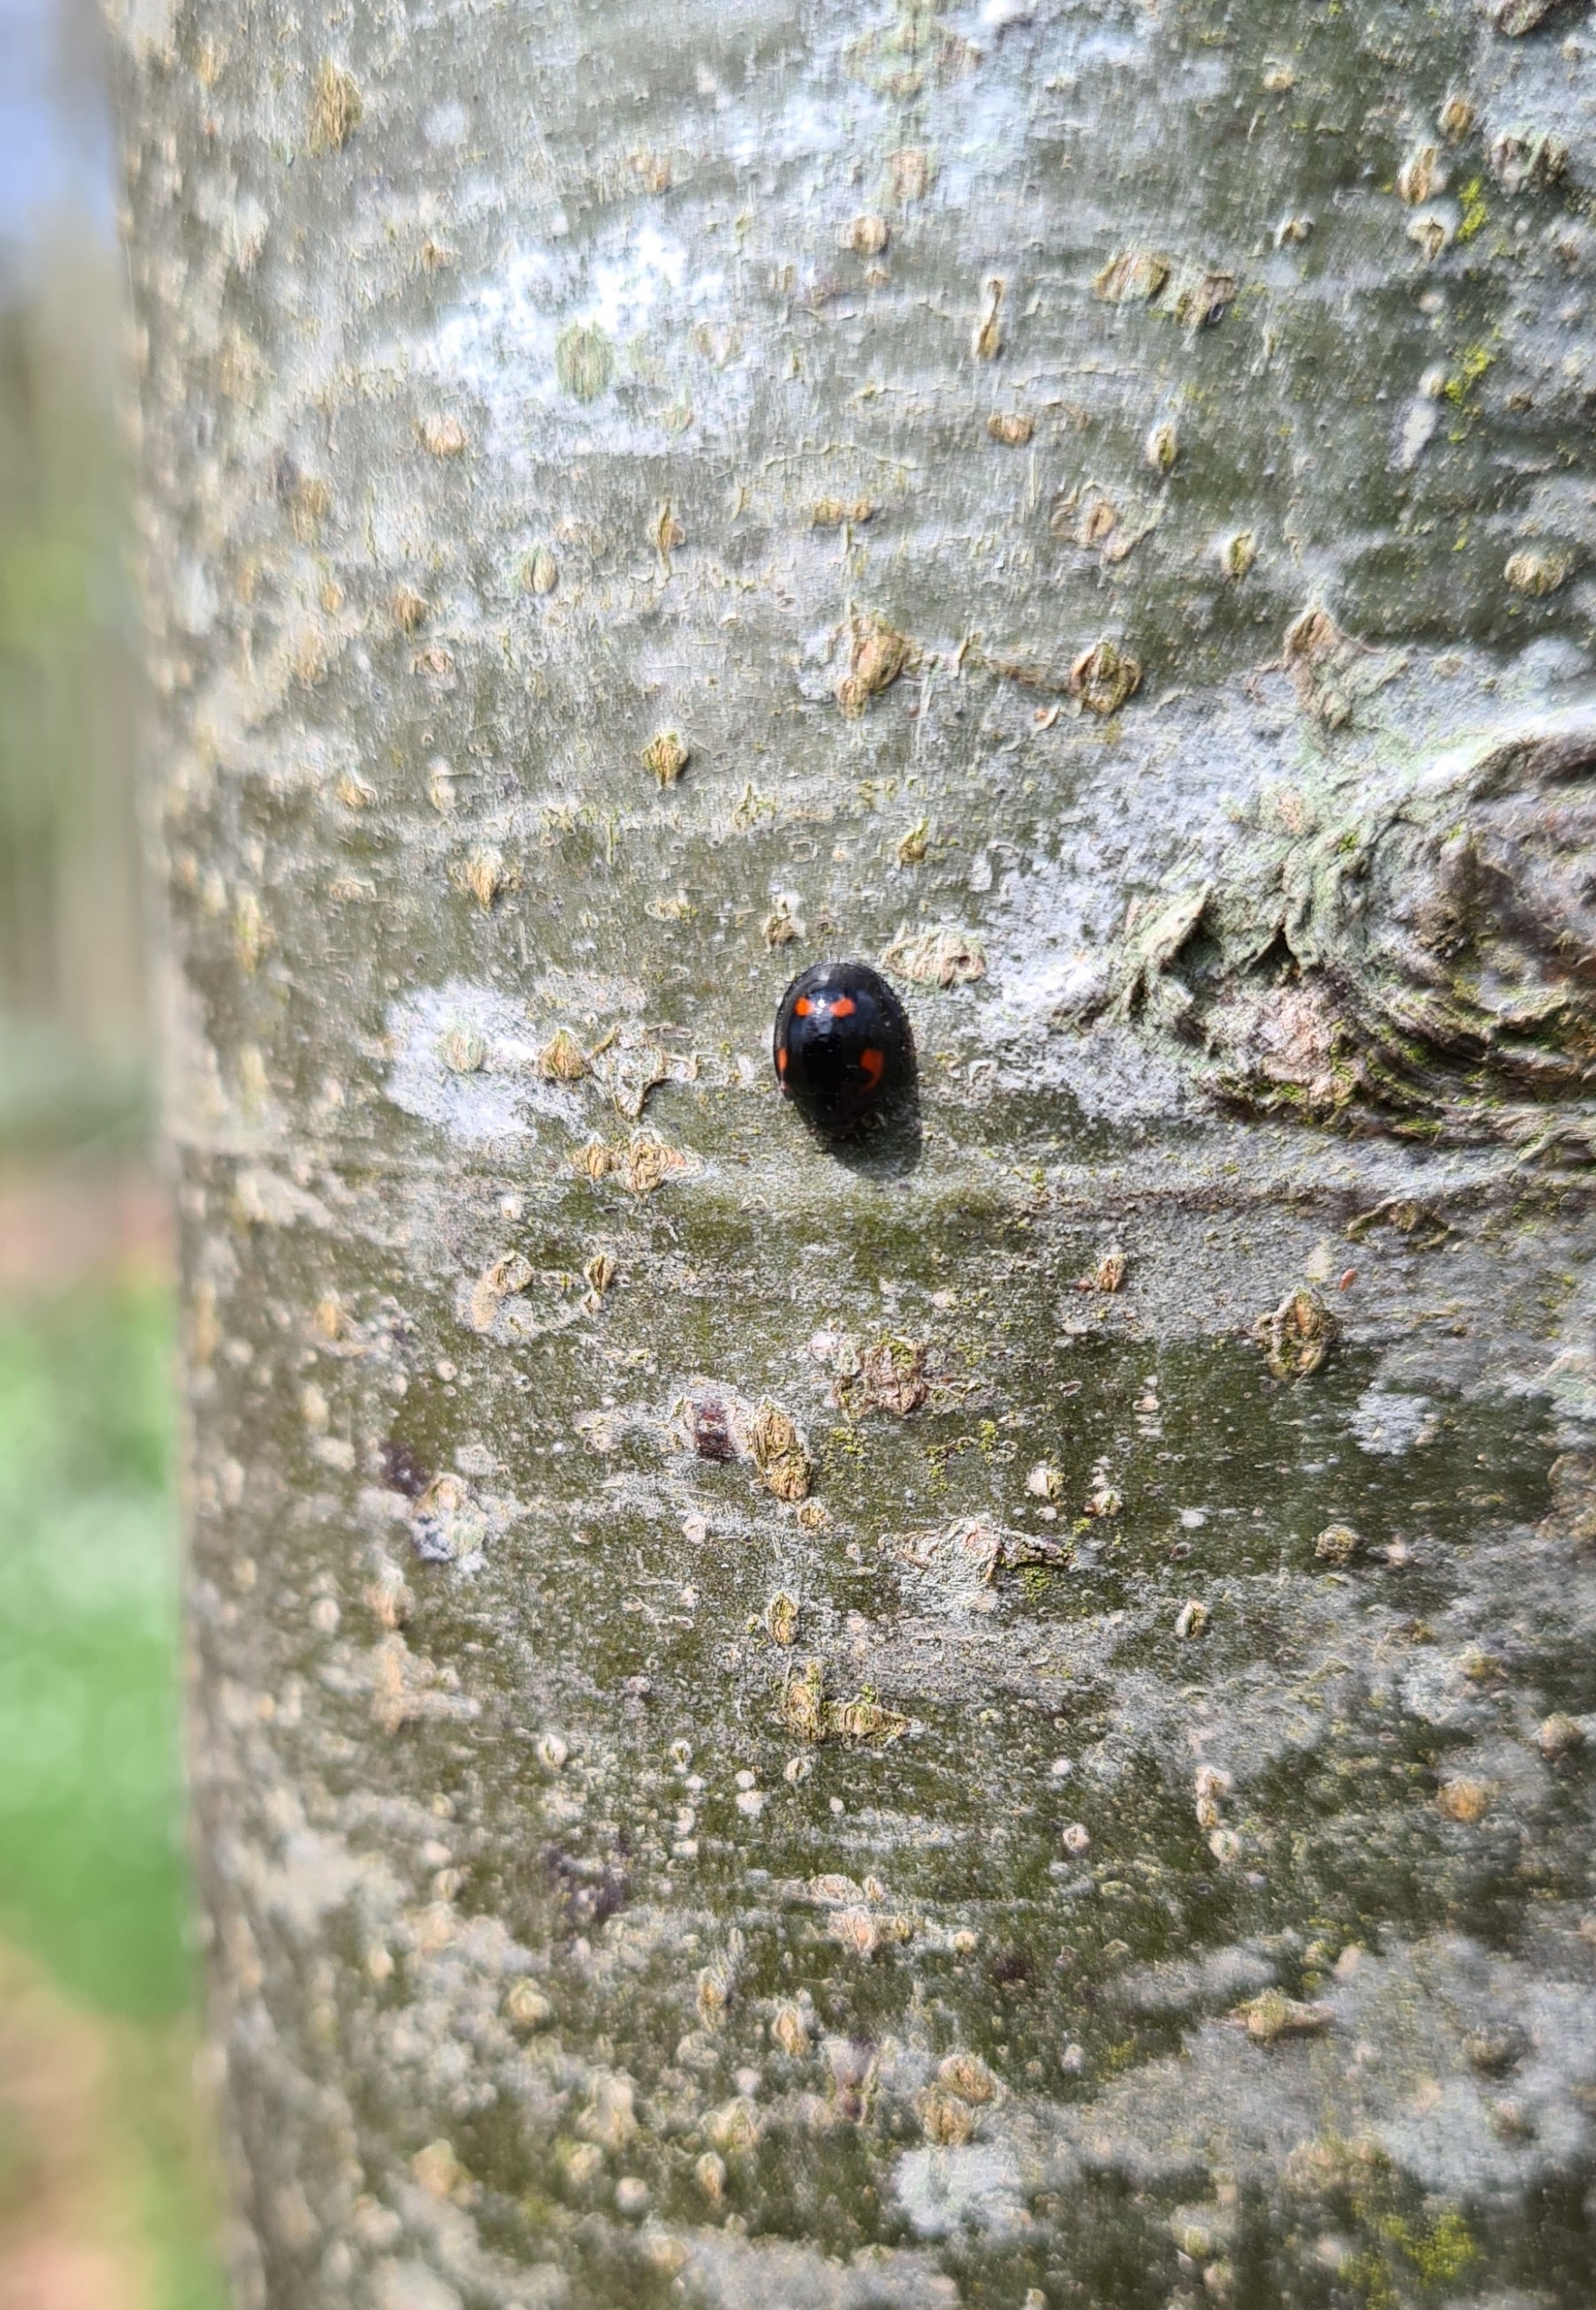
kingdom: Animalia
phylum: Arthropoda
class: Insecta
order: Coleoptera
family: Coccinellidae
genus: Brumus
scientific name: Brumus quadripustulatus
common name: Fireplettet mariehøne
